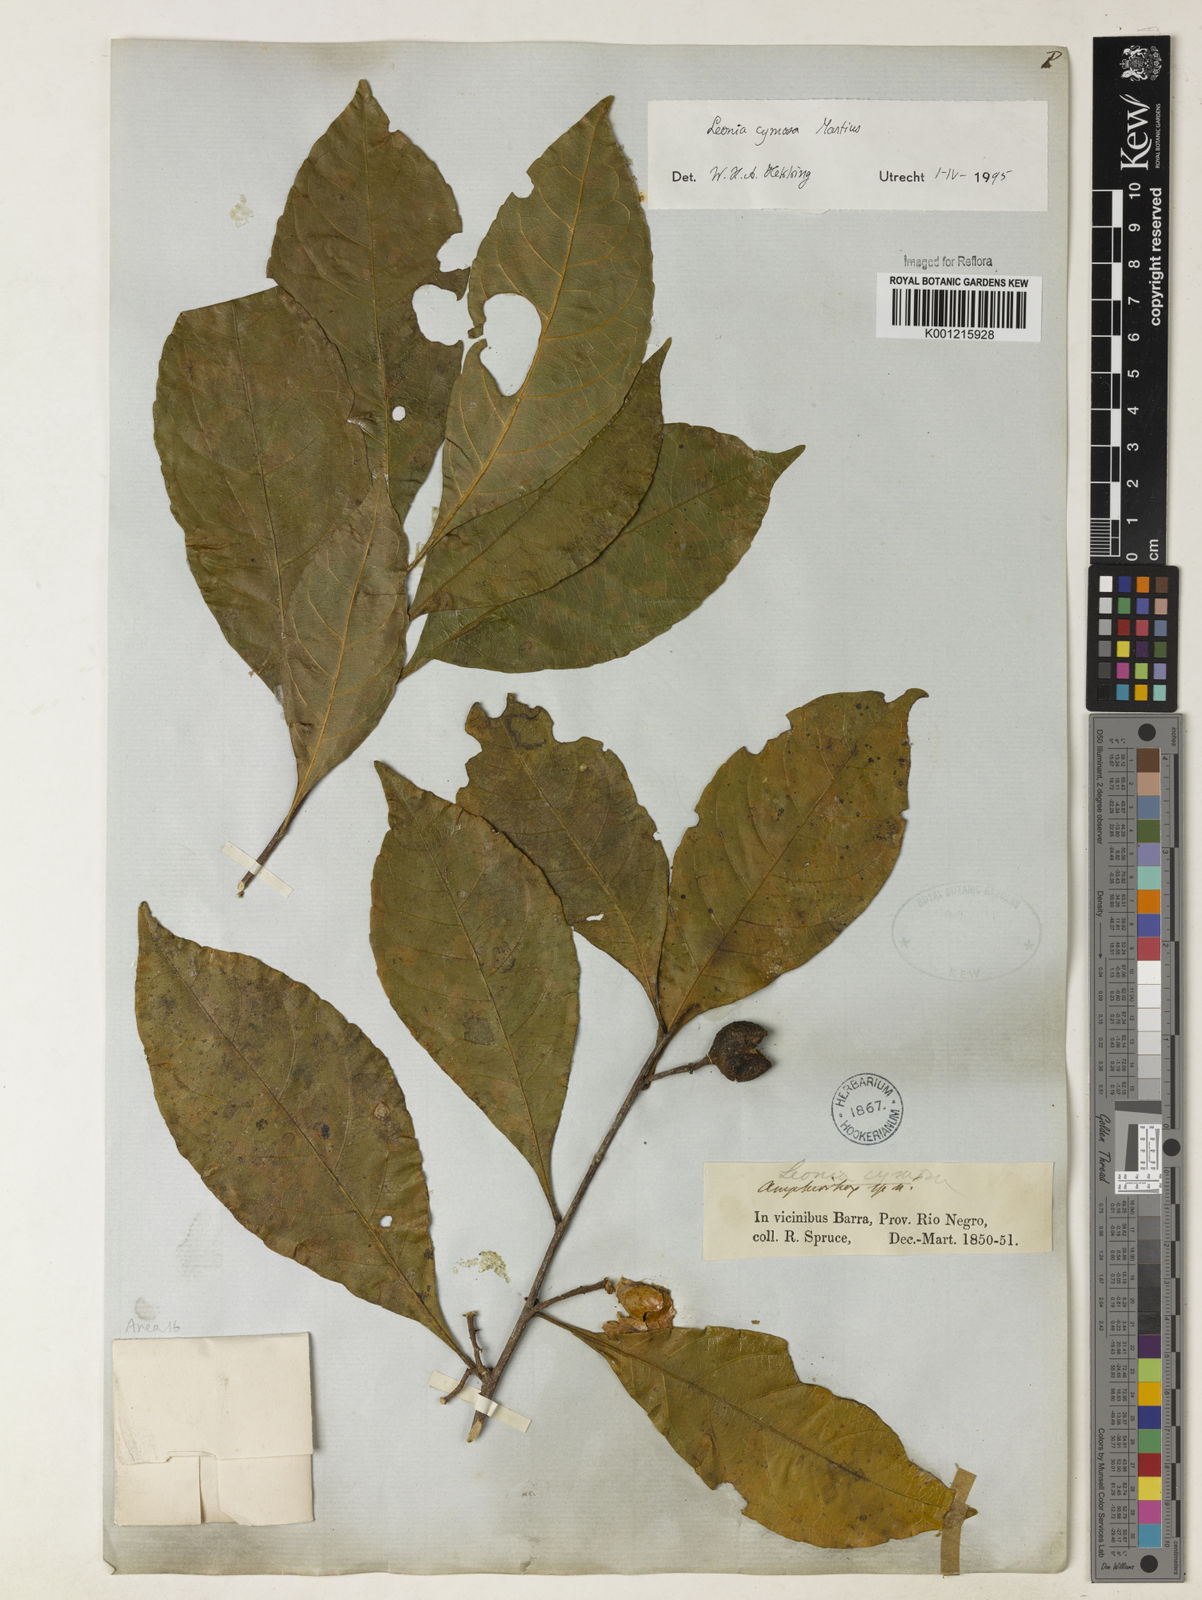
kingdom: Plantae
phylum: Tracheophyta
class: Magnoliopsida
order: Malpighiales
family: Violaceae
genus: Leonia
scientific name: Leonia cymosa
